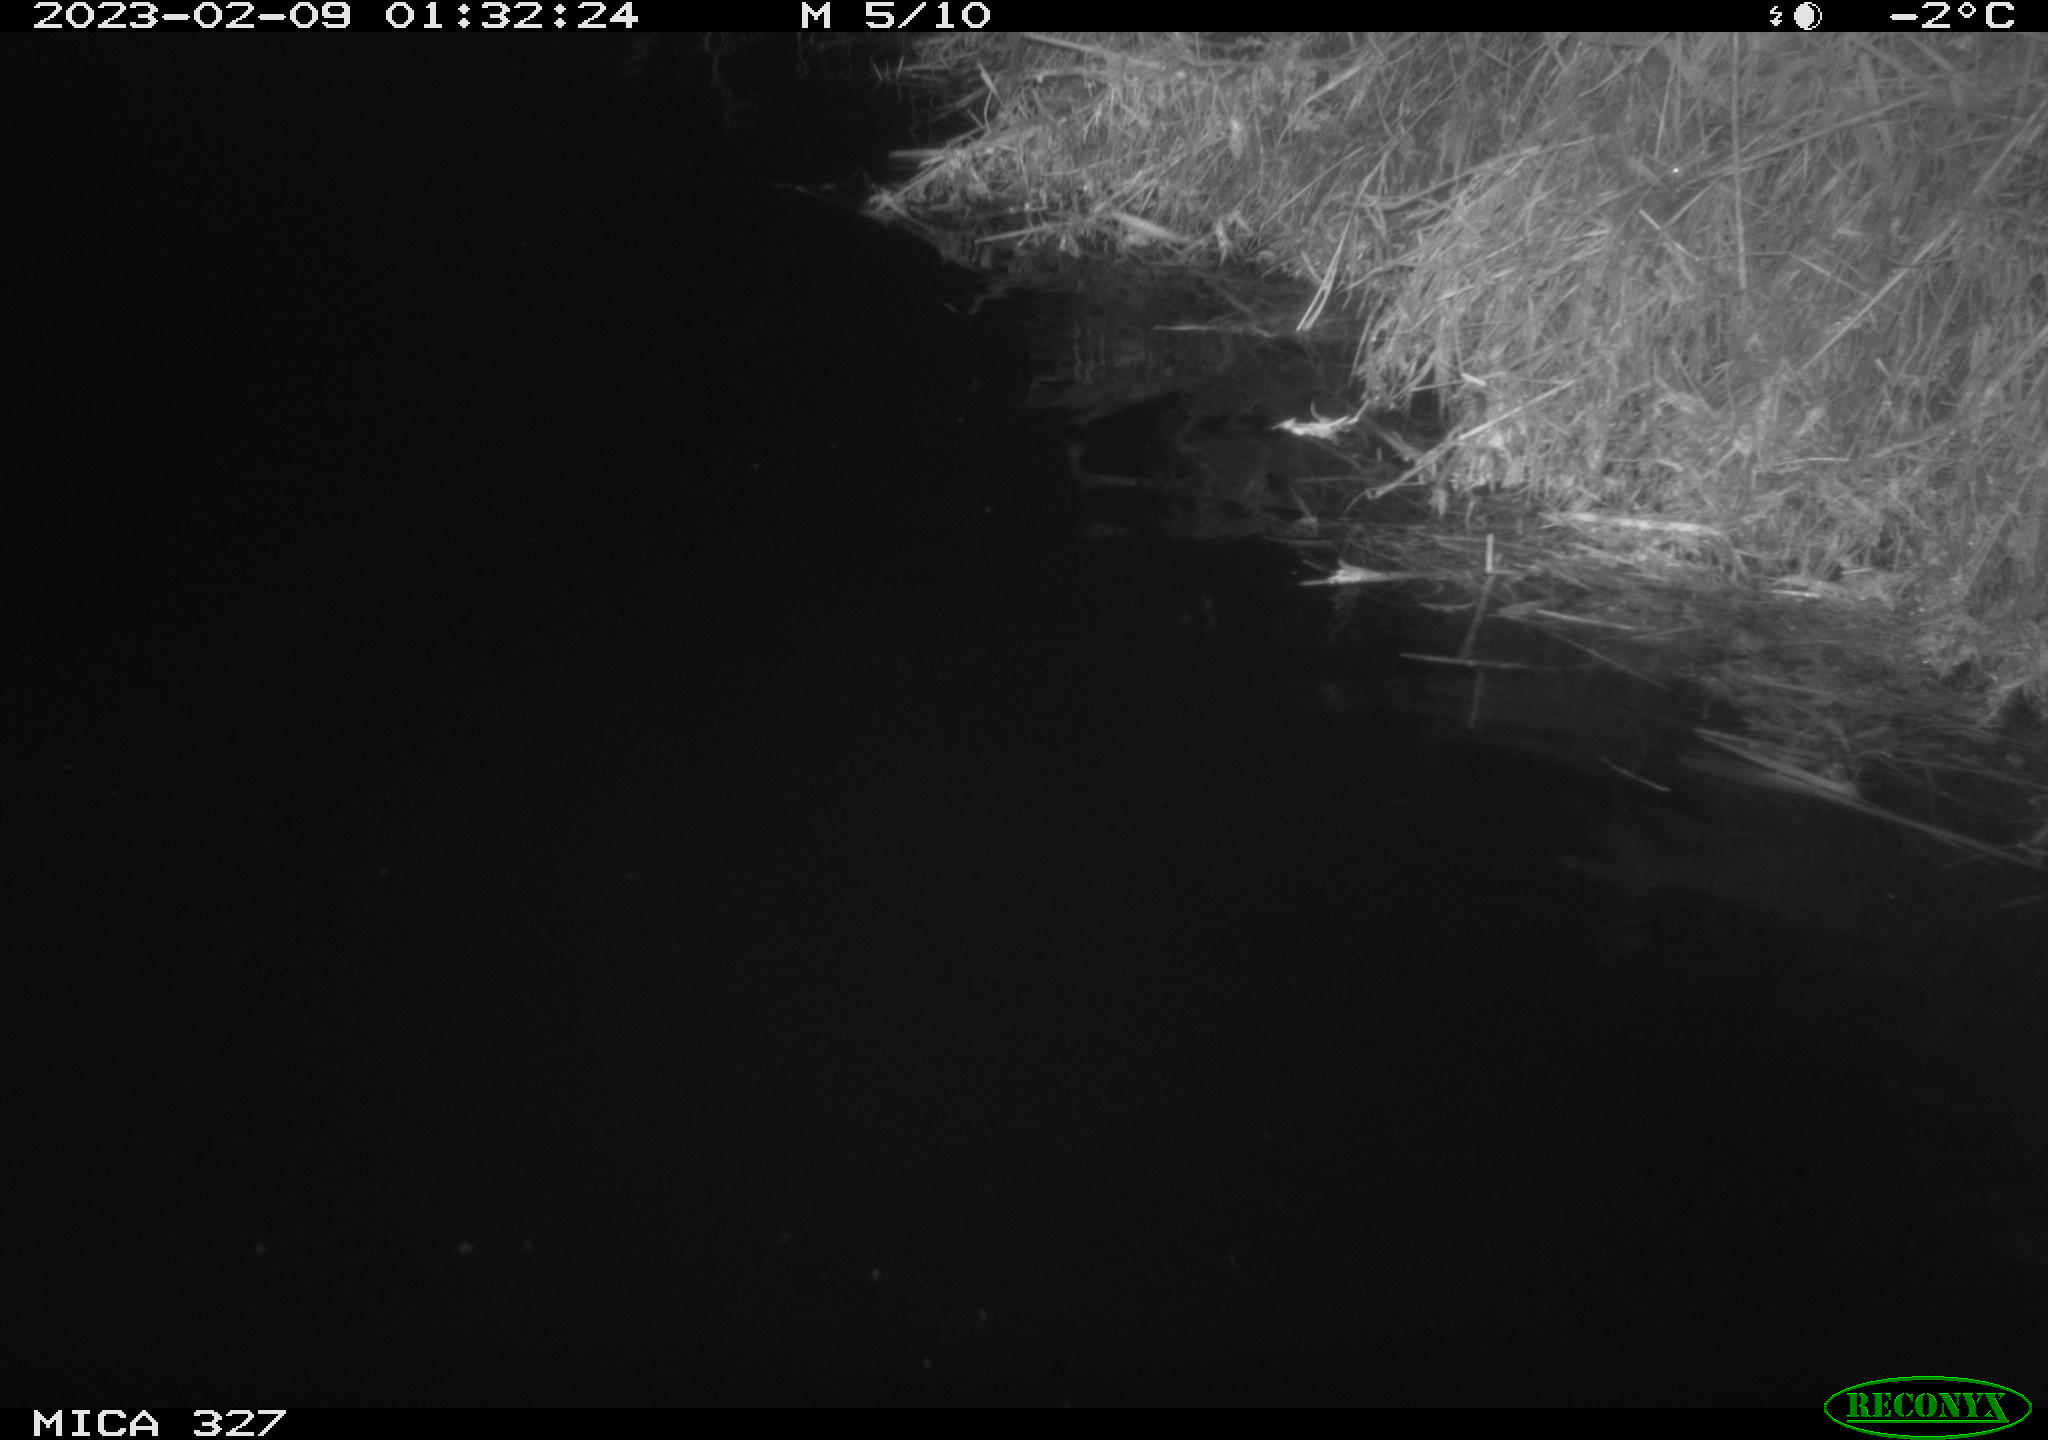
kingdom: Animalia
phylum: Chordata
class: Mammalia
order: Rodentia
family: Cricetidae
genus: Ondatra
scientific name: Ondatra zibethicus
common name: Muskrat
